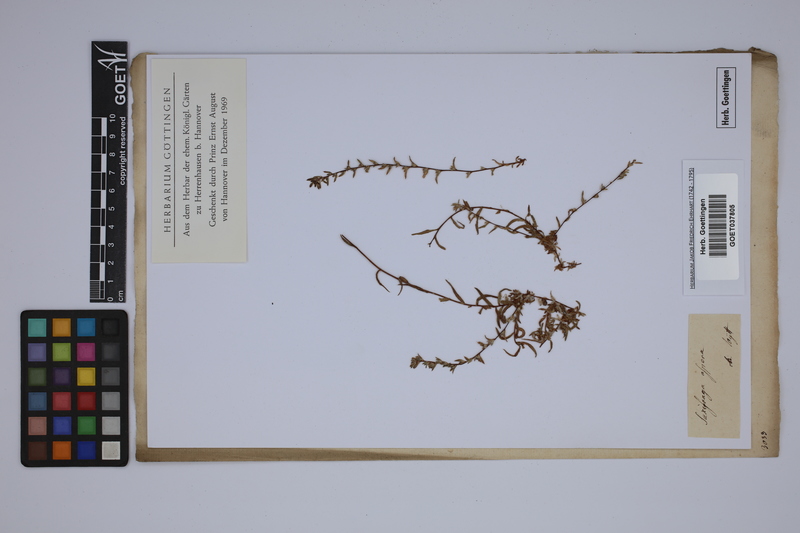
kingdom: Plantae
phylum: Tracheophyta
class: Magnoliopsida
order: Saxifragales
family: Saxifragaceae
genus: Saxifraga
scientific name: Saxifraga aspera
